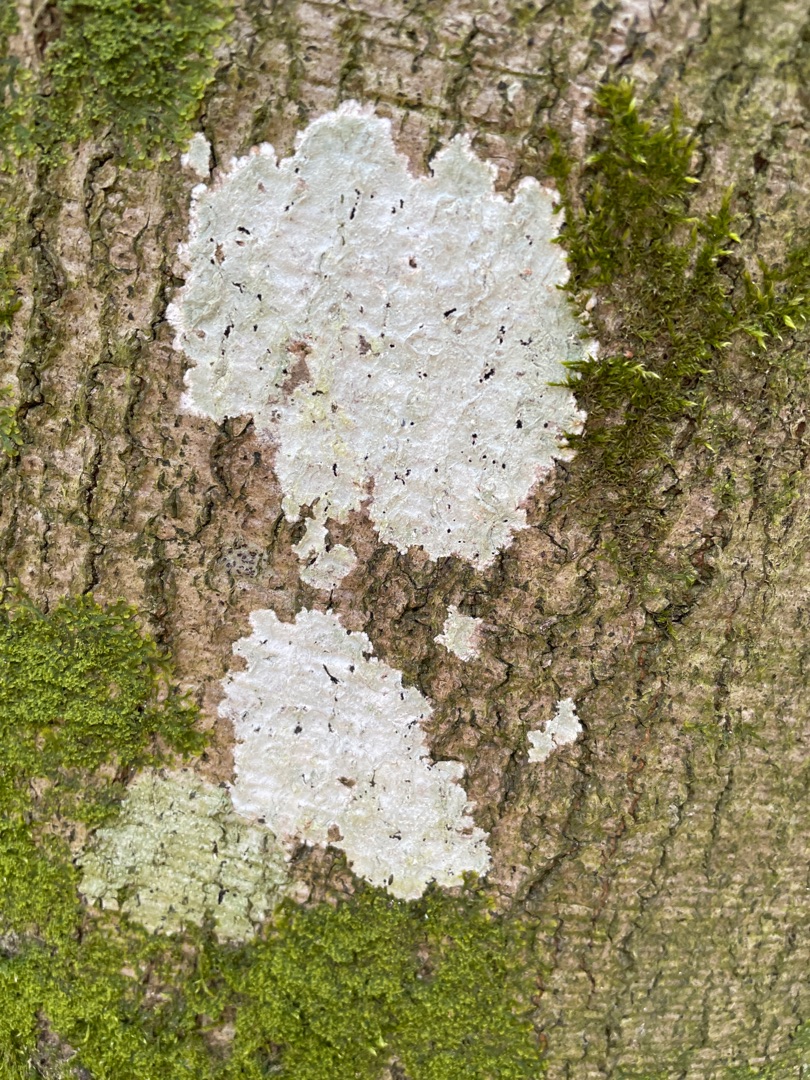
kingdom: Fungi
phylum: Ascomycota
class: Lecanoromycetes
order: Ostropales
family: Phlyctidaceae
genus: Phlyctis
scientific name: Phlyctis argena
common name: Almindelig sølvlav
